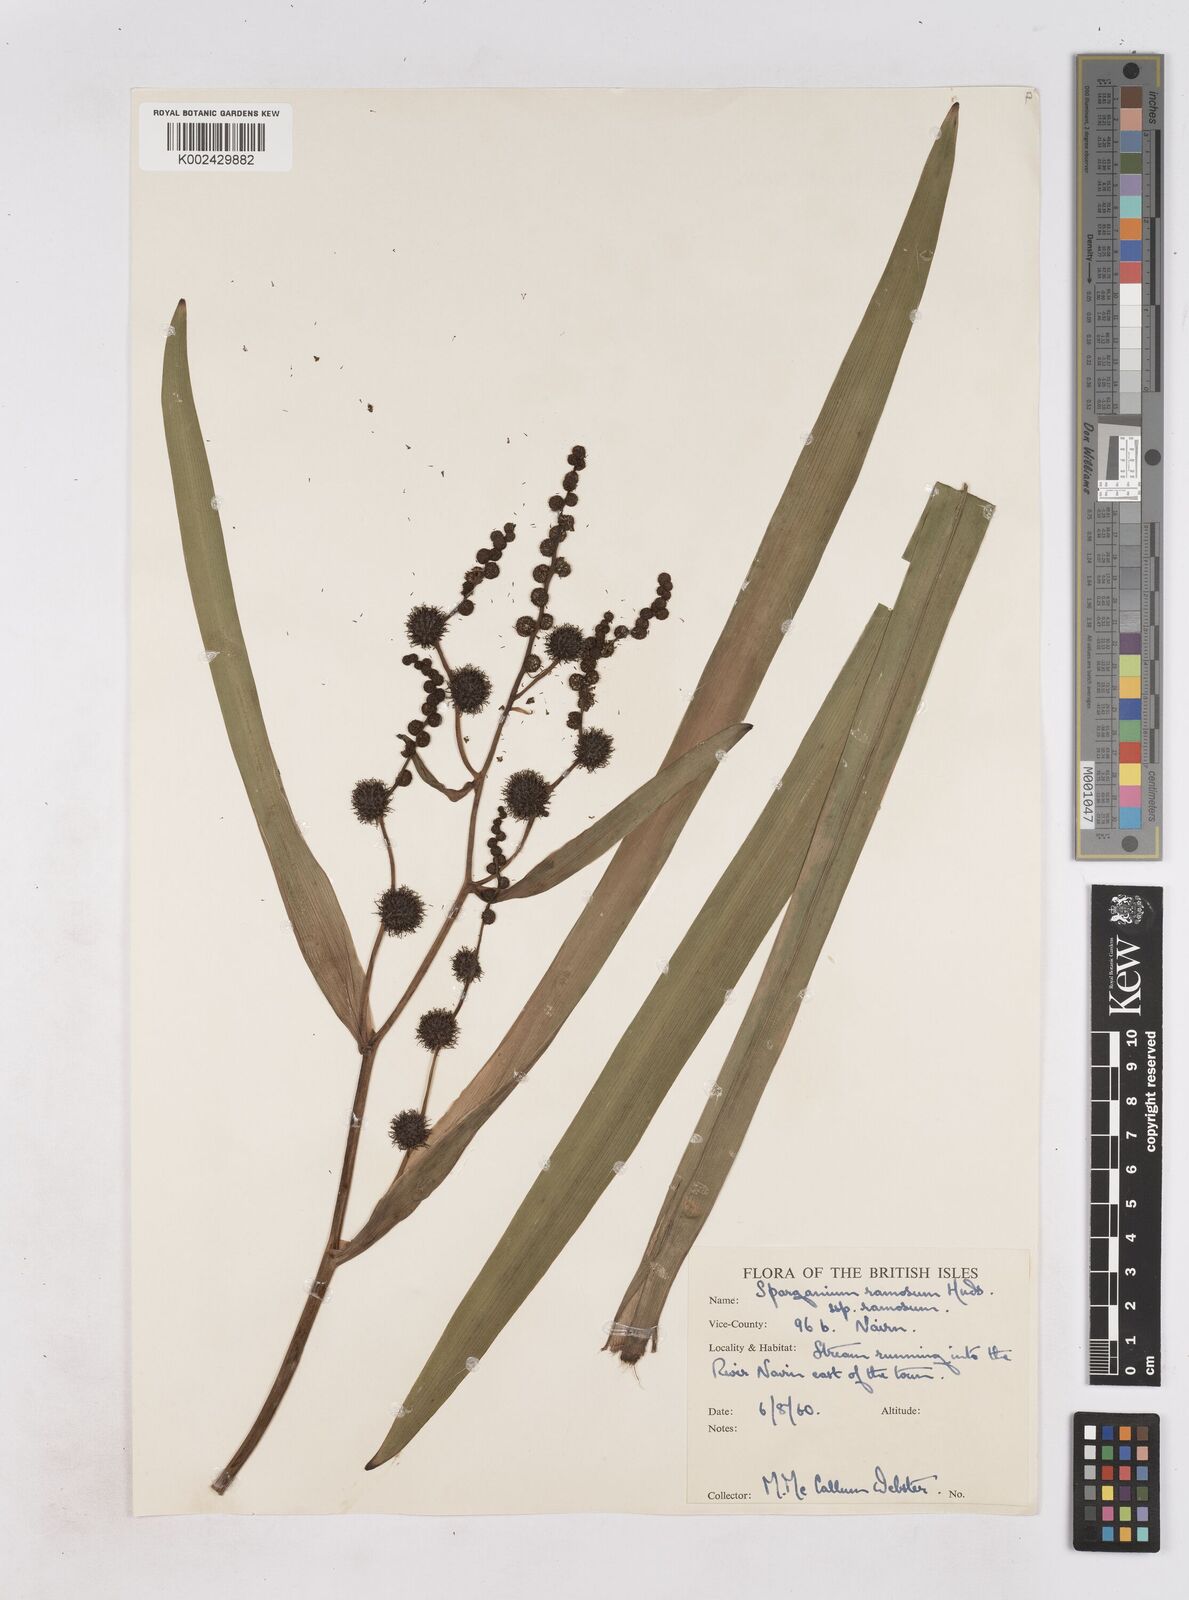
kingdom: Plantae
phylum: Tracheophyta
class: Liliopsida
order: Poales
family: Typhaceae
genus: Sparganium
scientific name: Sparganium erectum
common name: Branched bur-reed
